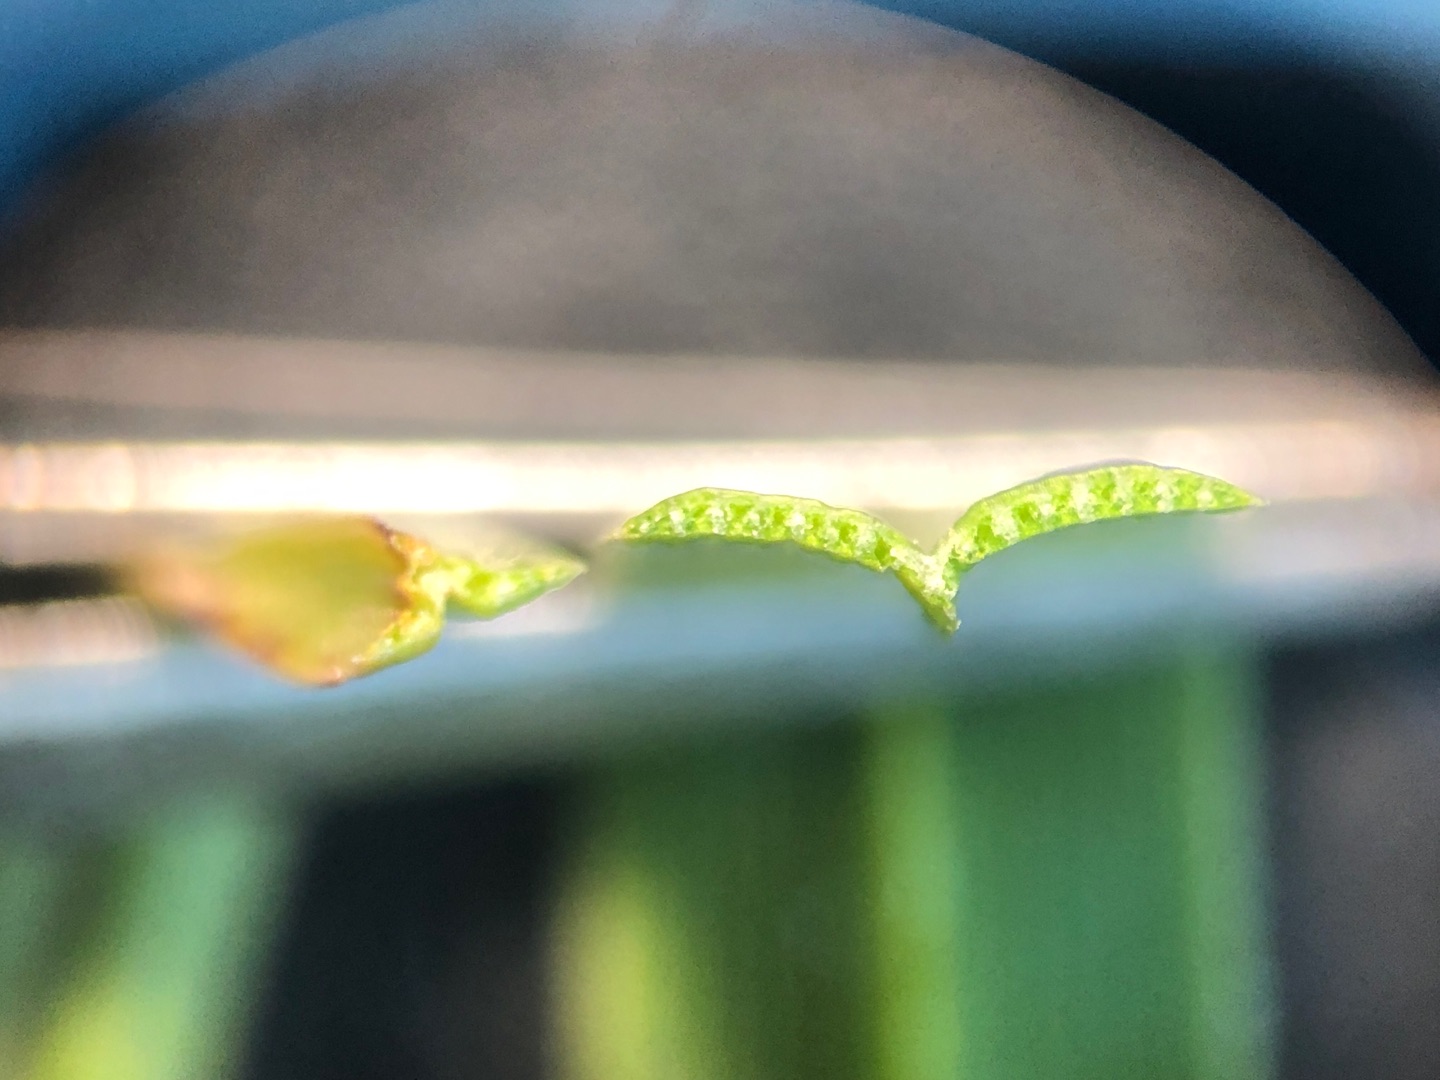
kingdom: Plantae
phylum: Tracheophyta
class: Liliopsida
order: Poales
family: Cyperaceae
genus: Bolboschoenus
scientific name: Bolboschoenus maritimus
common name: Strand-kogleaks
